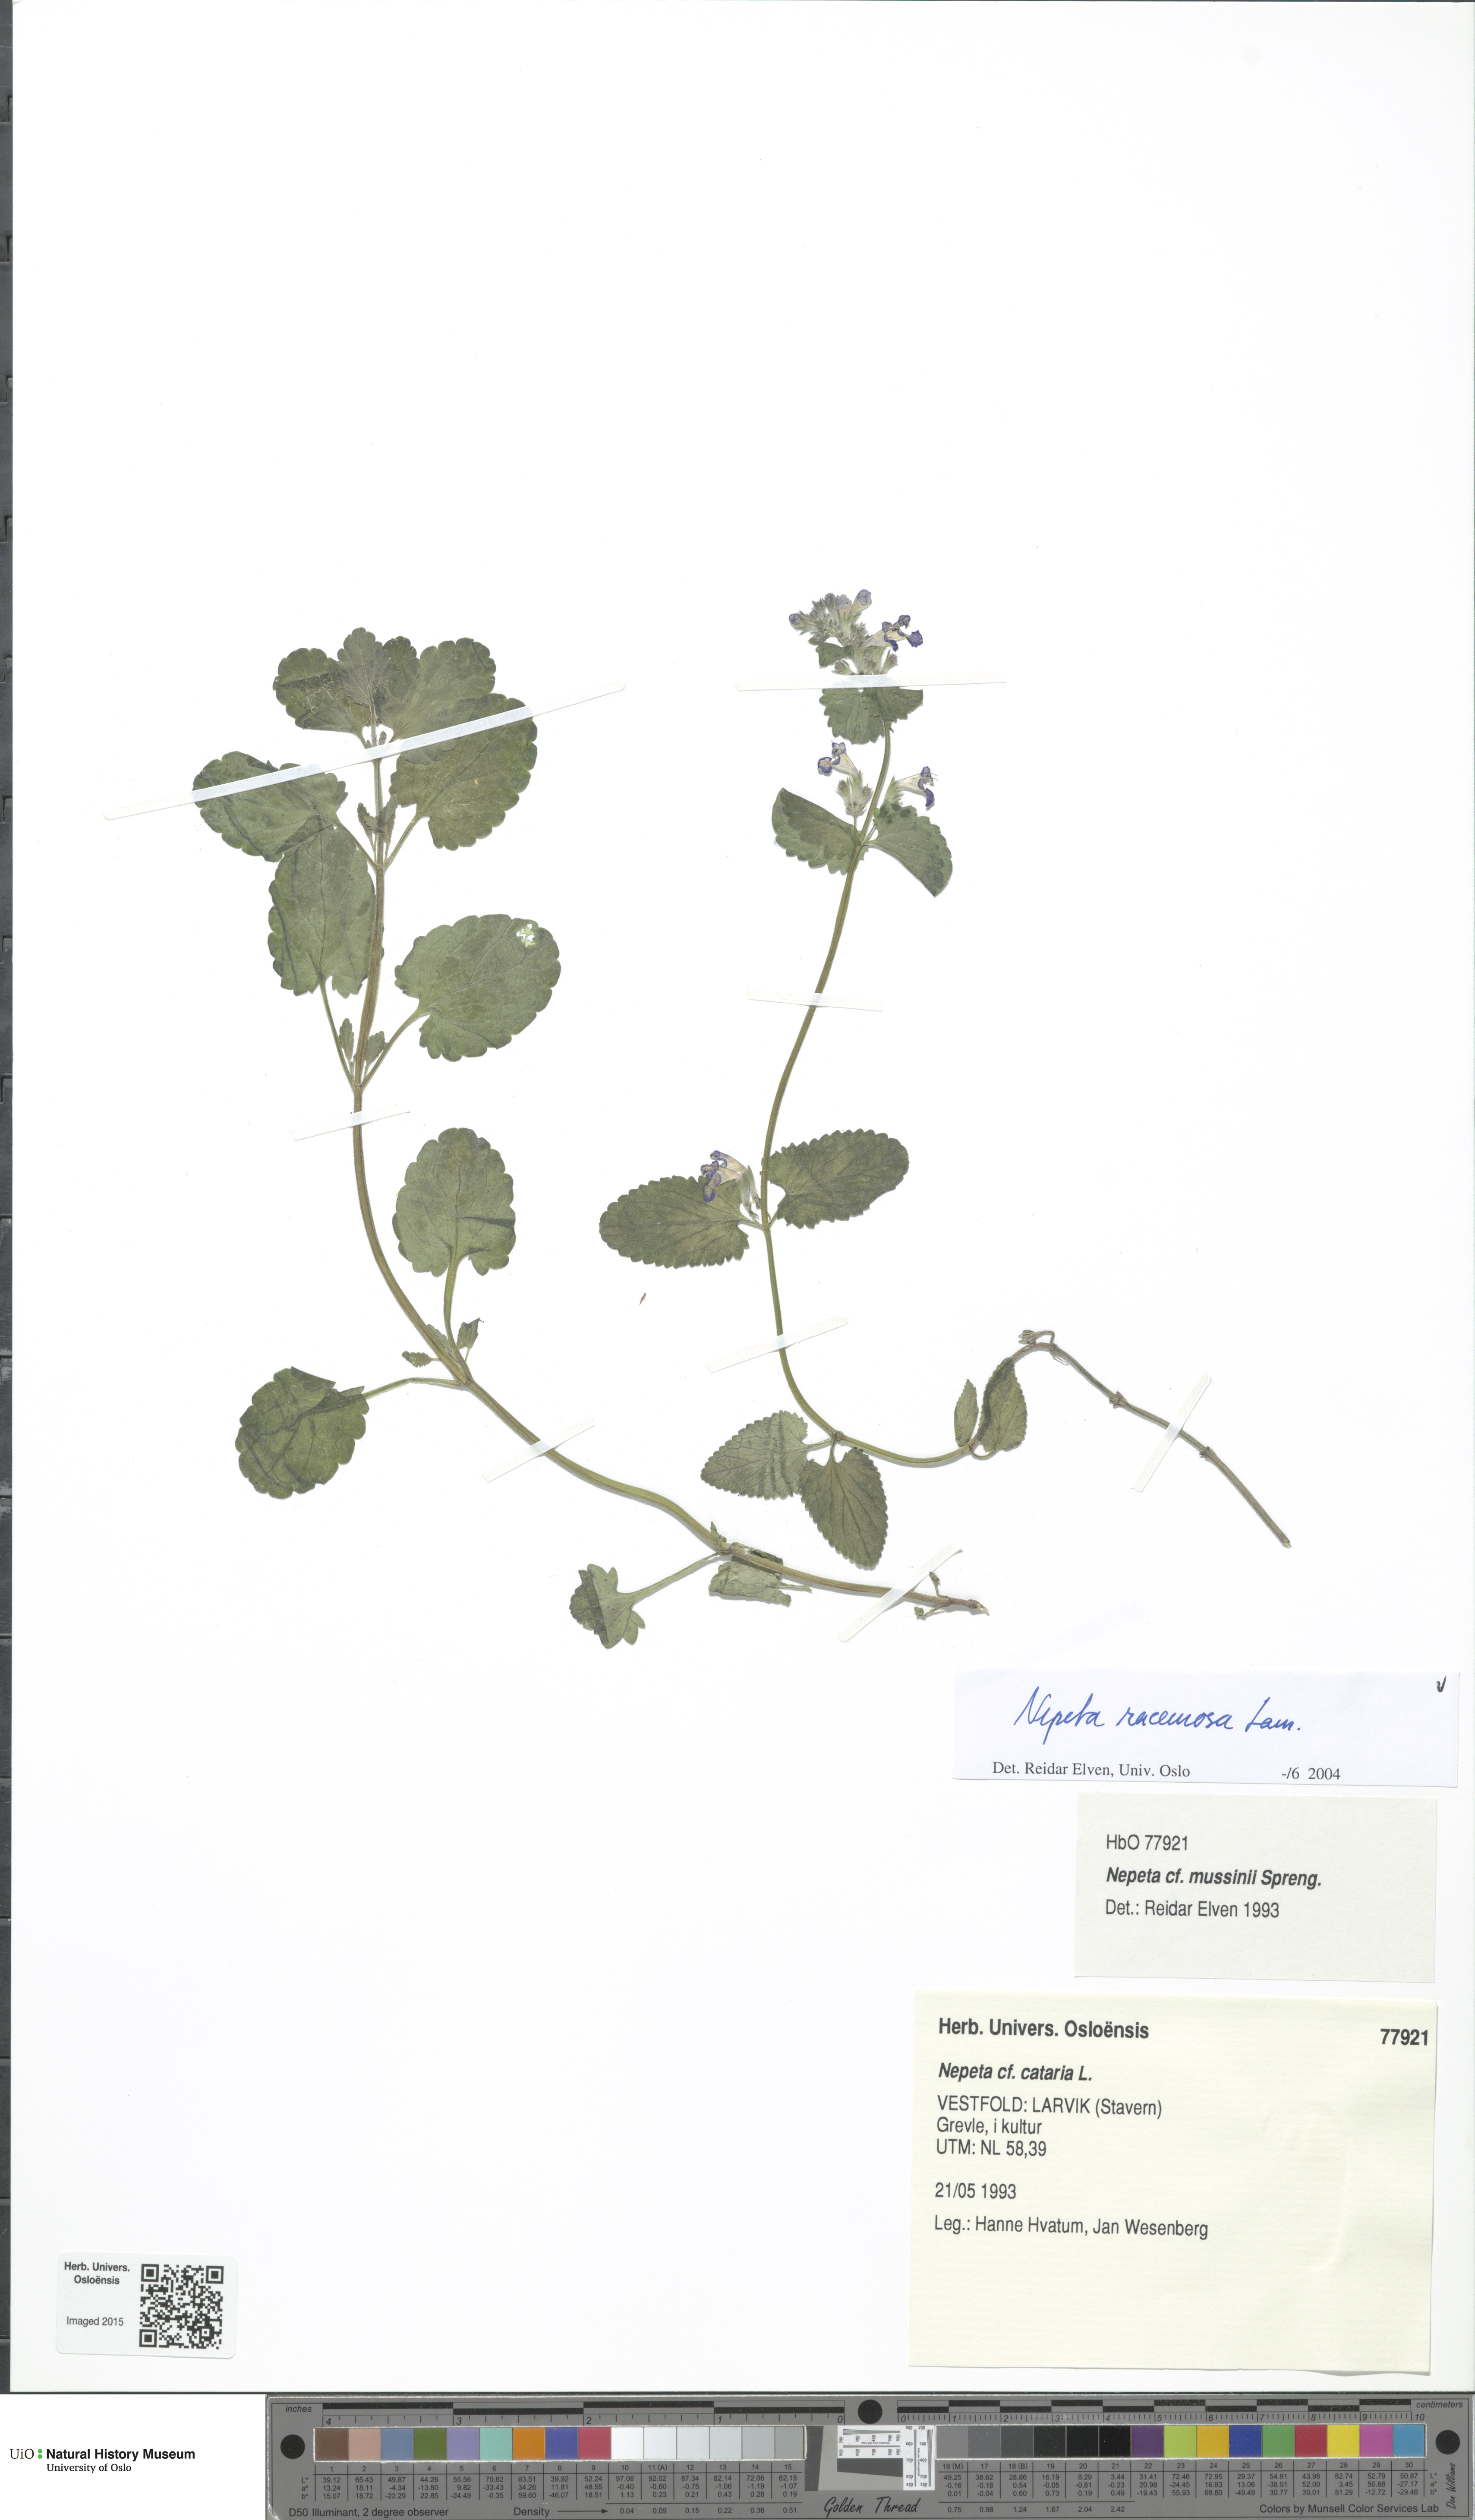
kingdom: Plantae
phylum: Tracheophyta
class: Magnoliopsida
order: Lamiales
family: Lamiaceae
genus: Nepeta
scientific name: Nepeta racemosa
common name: Raceme catnip
